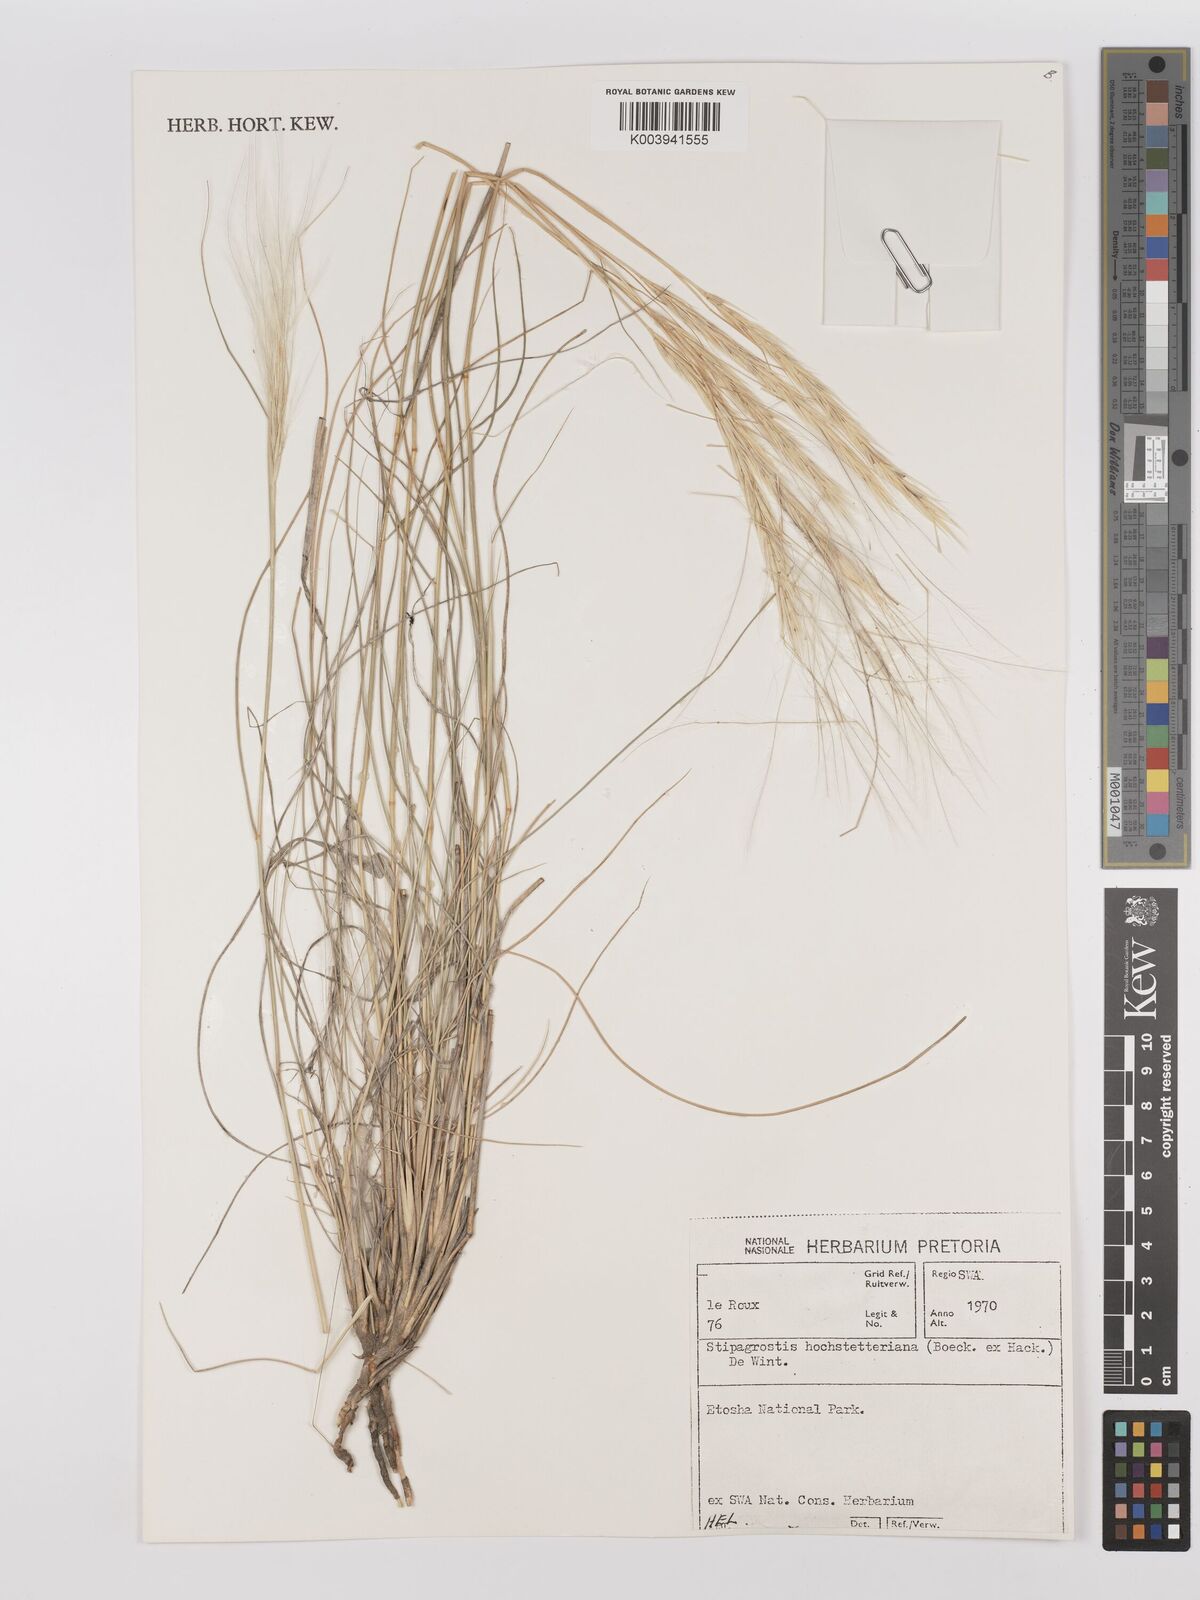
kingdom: Plantae
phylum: Tracheophyta
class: Liliopsida
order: Poales
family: Poaceae
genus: Stipagrostis
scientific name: Stipagrostis hochstetteriana
